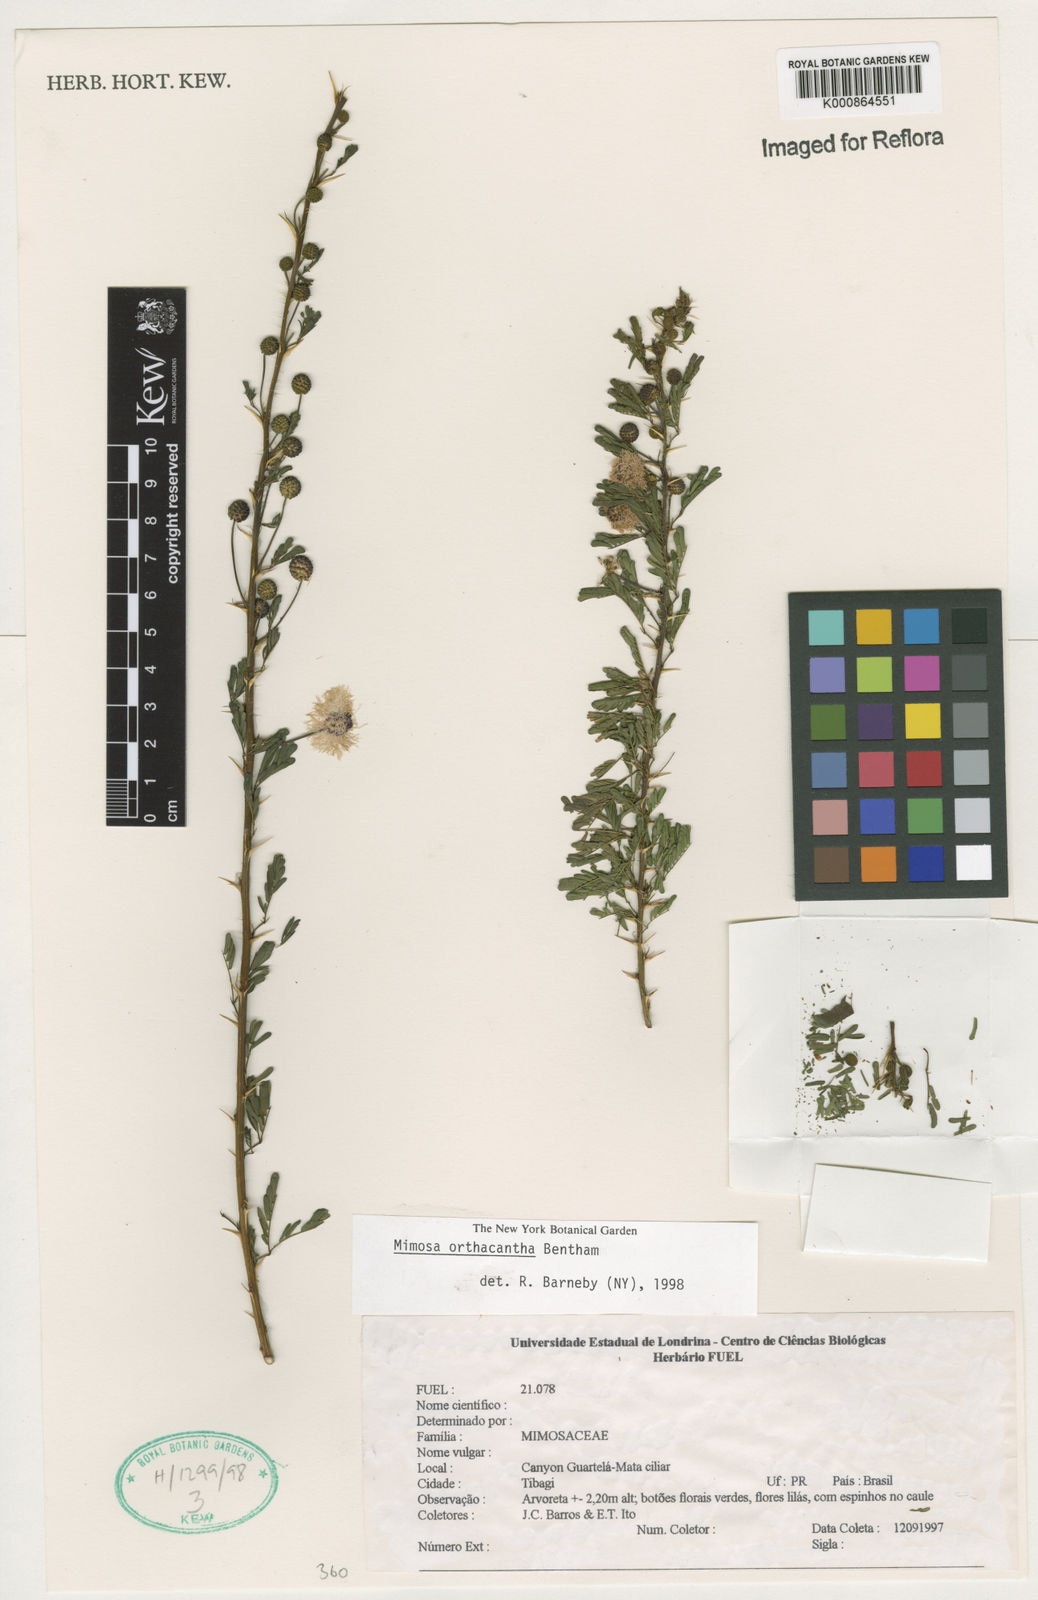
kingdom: Plantae
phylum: Tracheophyta
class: Magnoliopsida
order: Fabales
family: Fabaceae
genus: Mimosa
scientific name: Mimosa orthacantha
